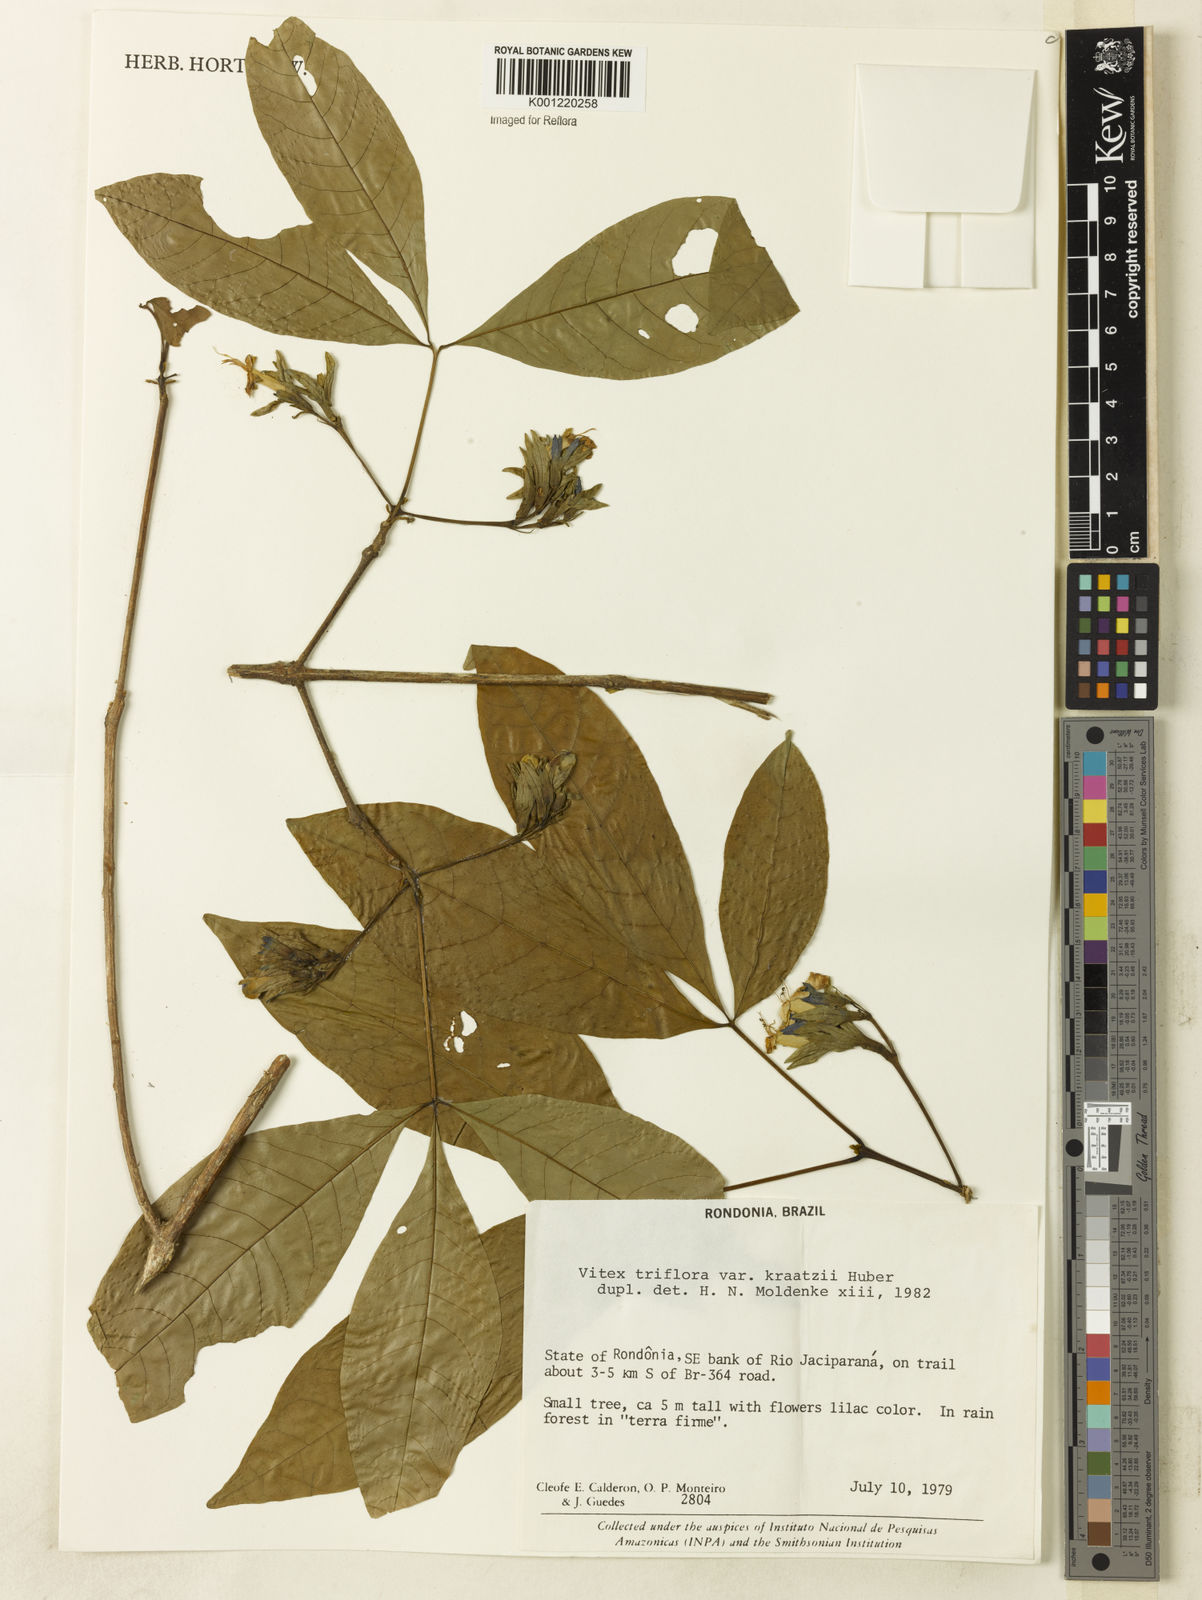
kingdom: Plantae
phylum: Tracheophyta
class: Magnoliopsida
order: Lamiales
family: Lamiaceae
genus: Vitex
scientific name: Vitex triflora
